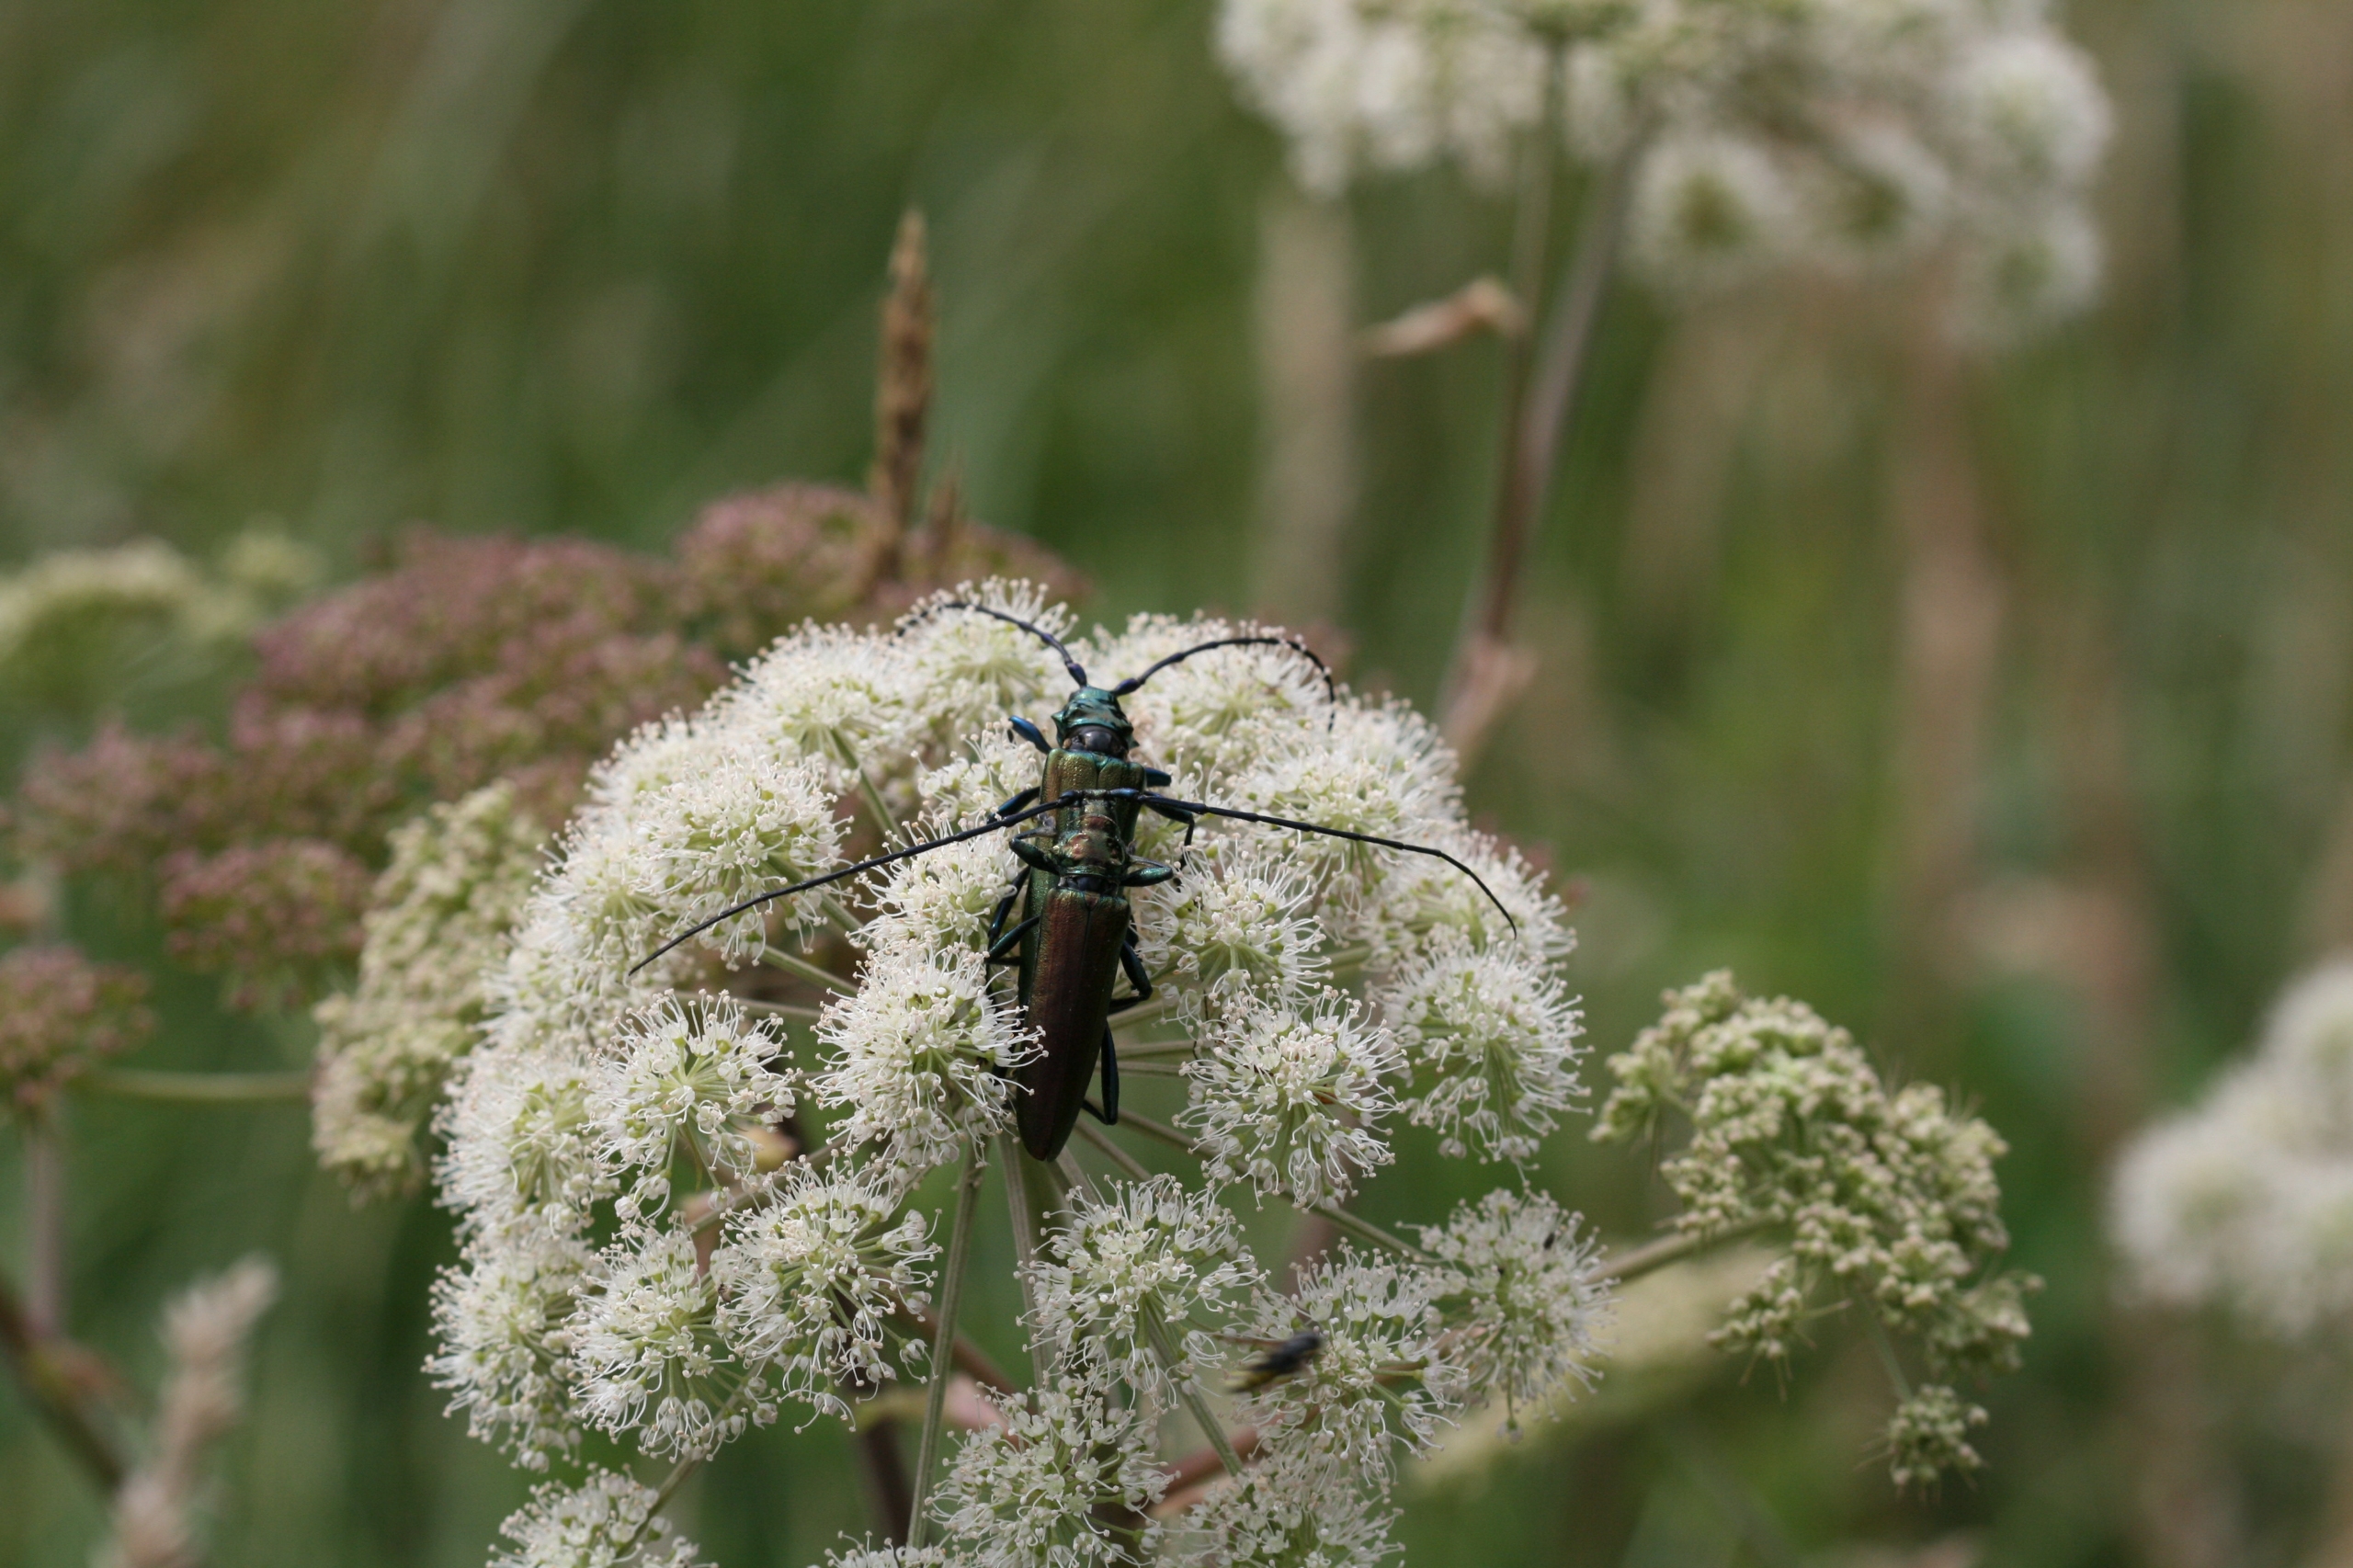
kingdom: Animalia
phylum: Arthropoda
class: Insecta
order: Coleoptera
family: Cerambycidae
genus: Aromia
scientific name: Aromia moschata
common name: Moskusbuk
